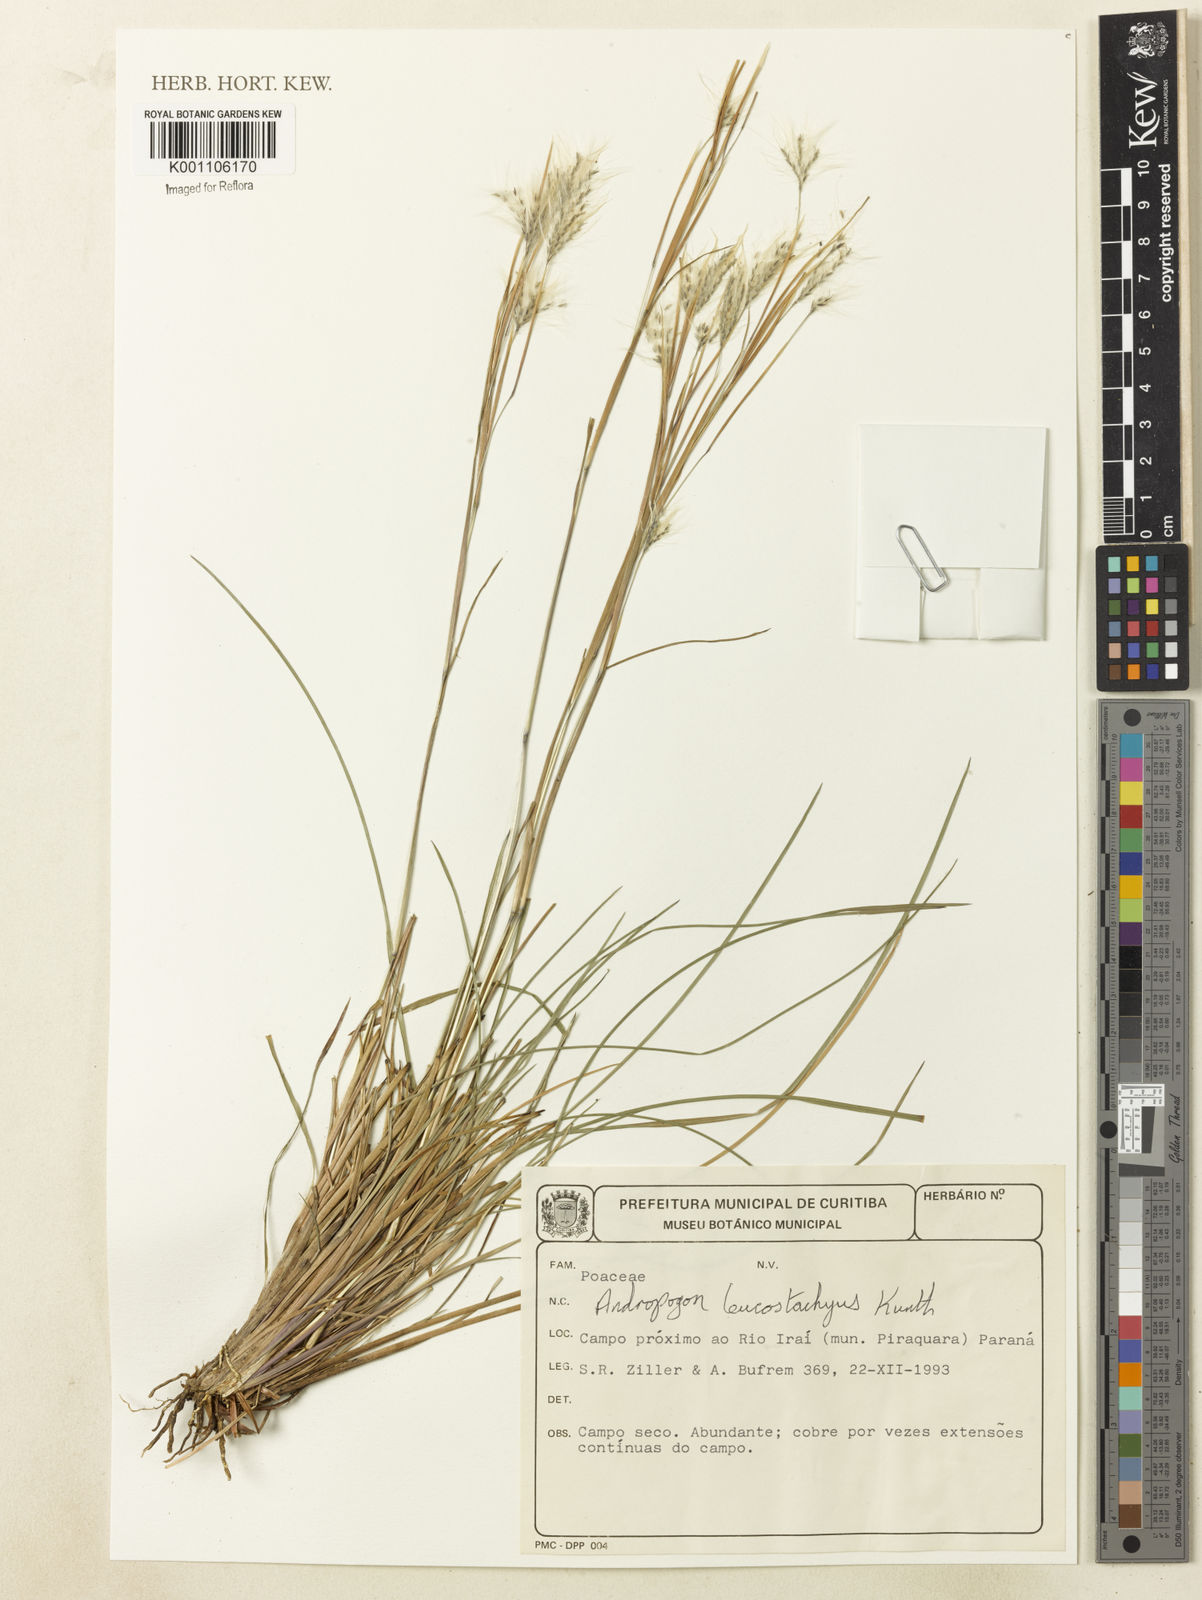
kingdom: Plantae
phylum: Tracheophyta
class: Liliopsida
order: Poales
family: Poaceae
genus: Andropogon
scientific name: Andropogon leucostachyus
